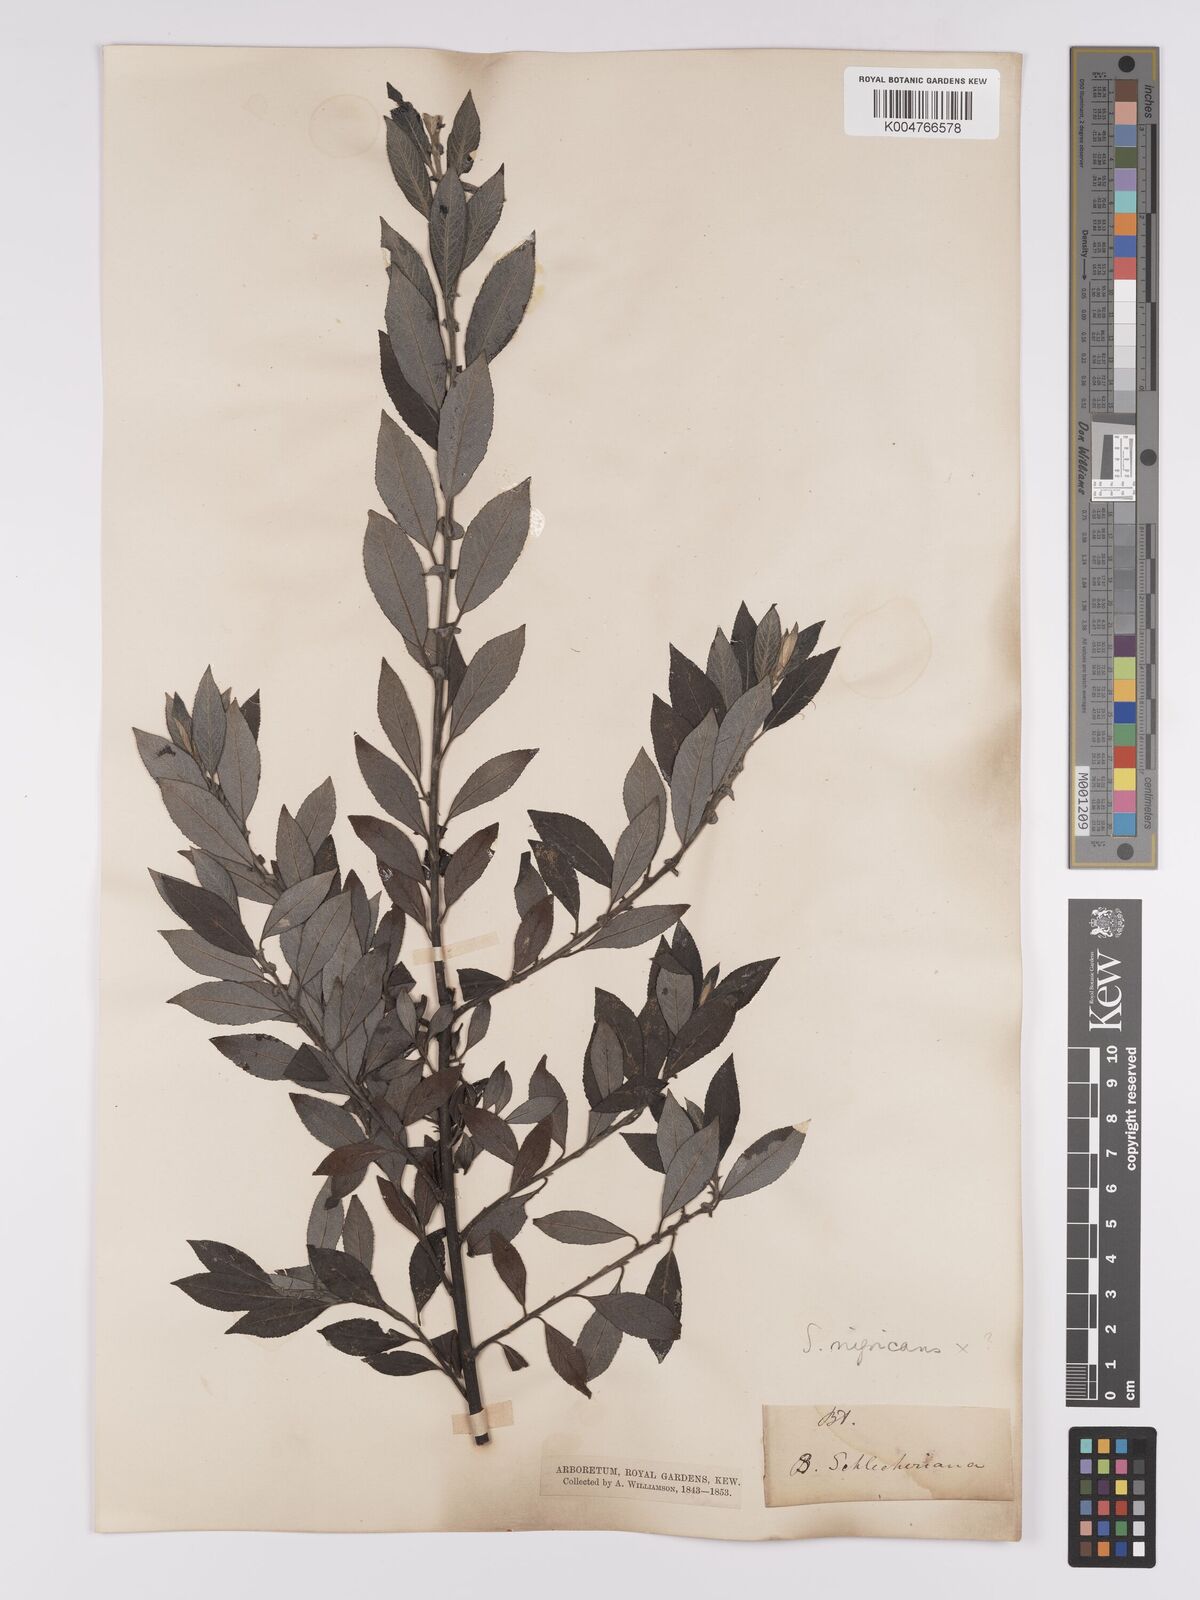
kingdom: Plantae
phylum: Tracheophyta
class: Magnoliopsida
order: Malpighiales
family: Salicaceae
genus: Salix
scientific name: Salix
